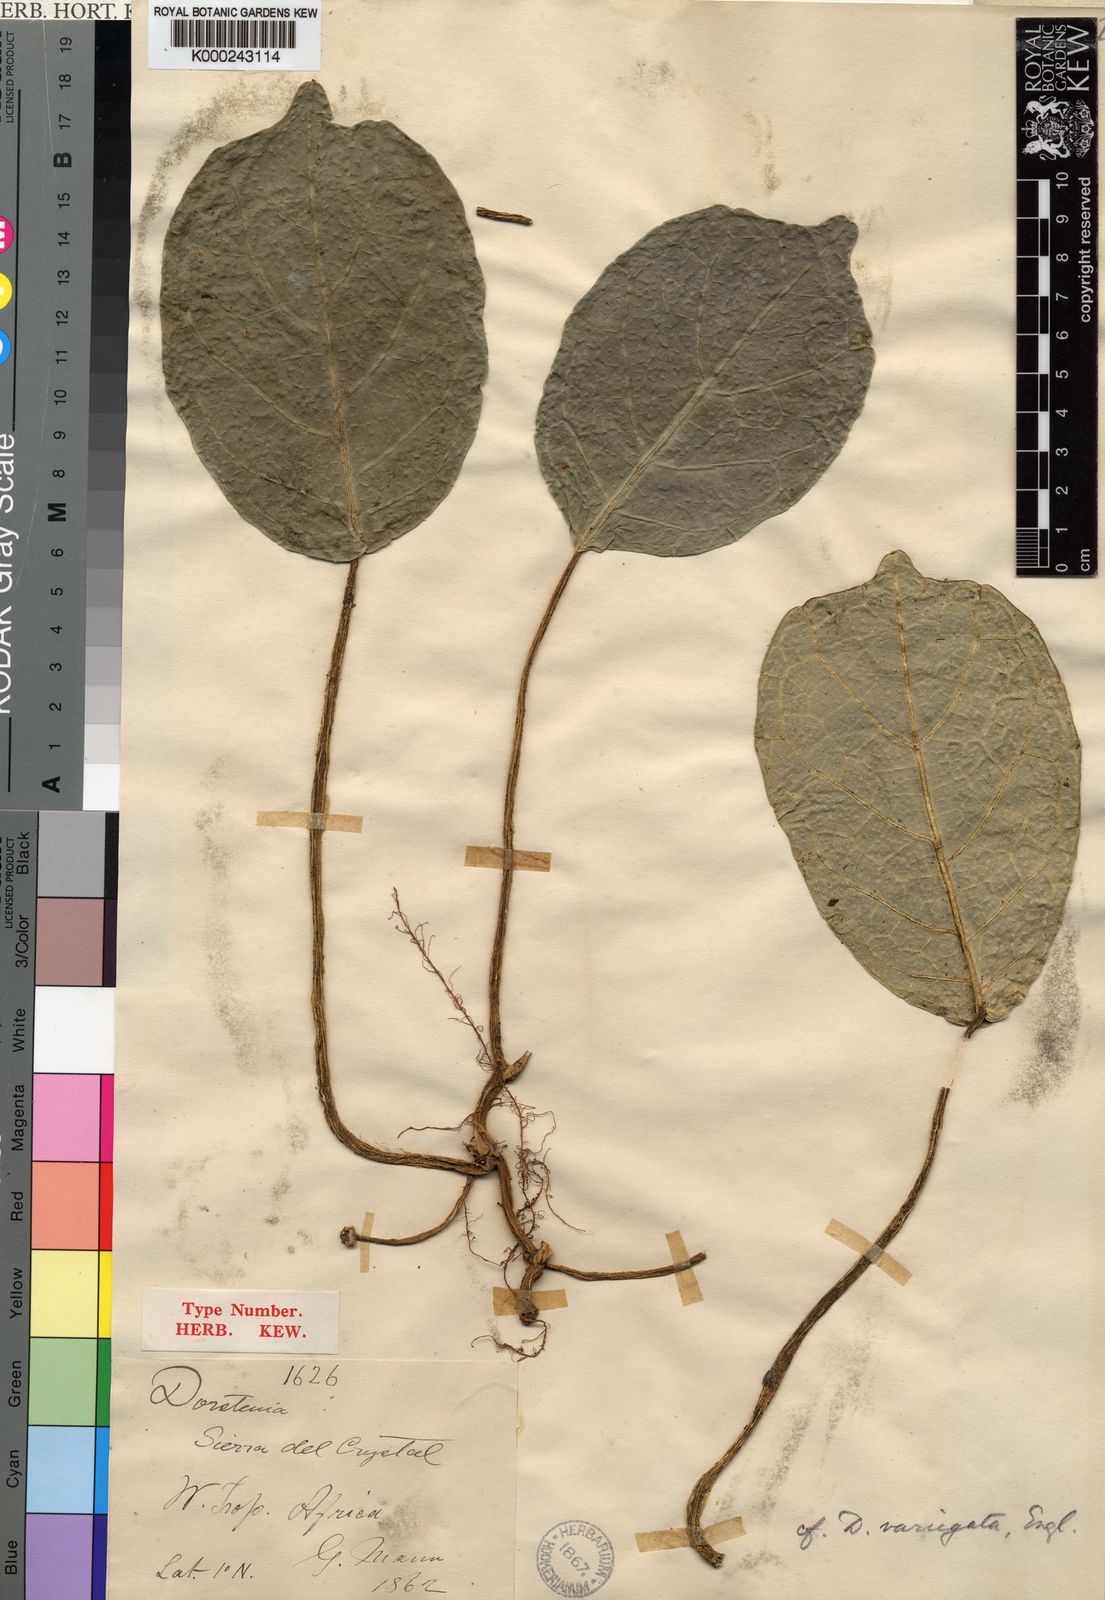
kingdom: Plantae
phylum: Tracheophyta
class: Magnoliopsida
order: Rosales
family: Moraceae
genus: Dorstenia
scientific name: Dorstenia
